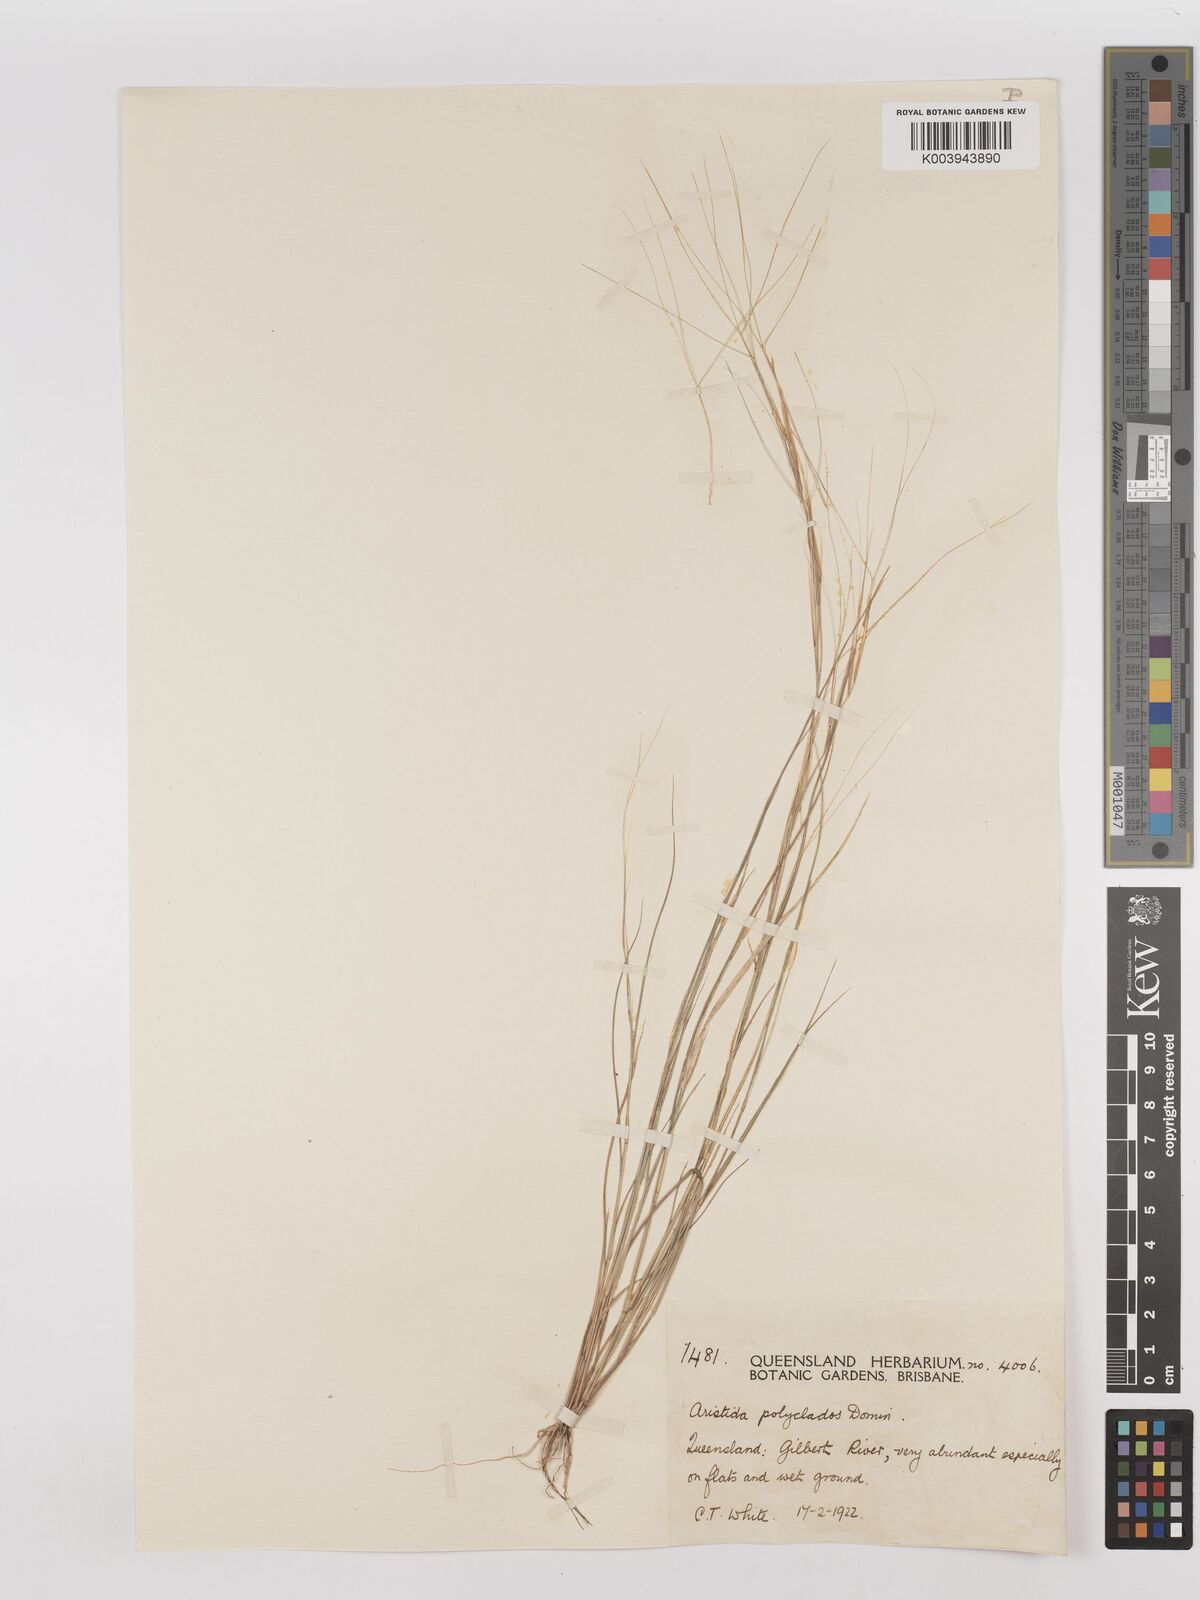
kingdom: Plantae
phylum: Tracheophyta
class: Liliopsida
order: Poales
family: Poaceae
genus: Aristida
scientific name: Aristida polyclados
